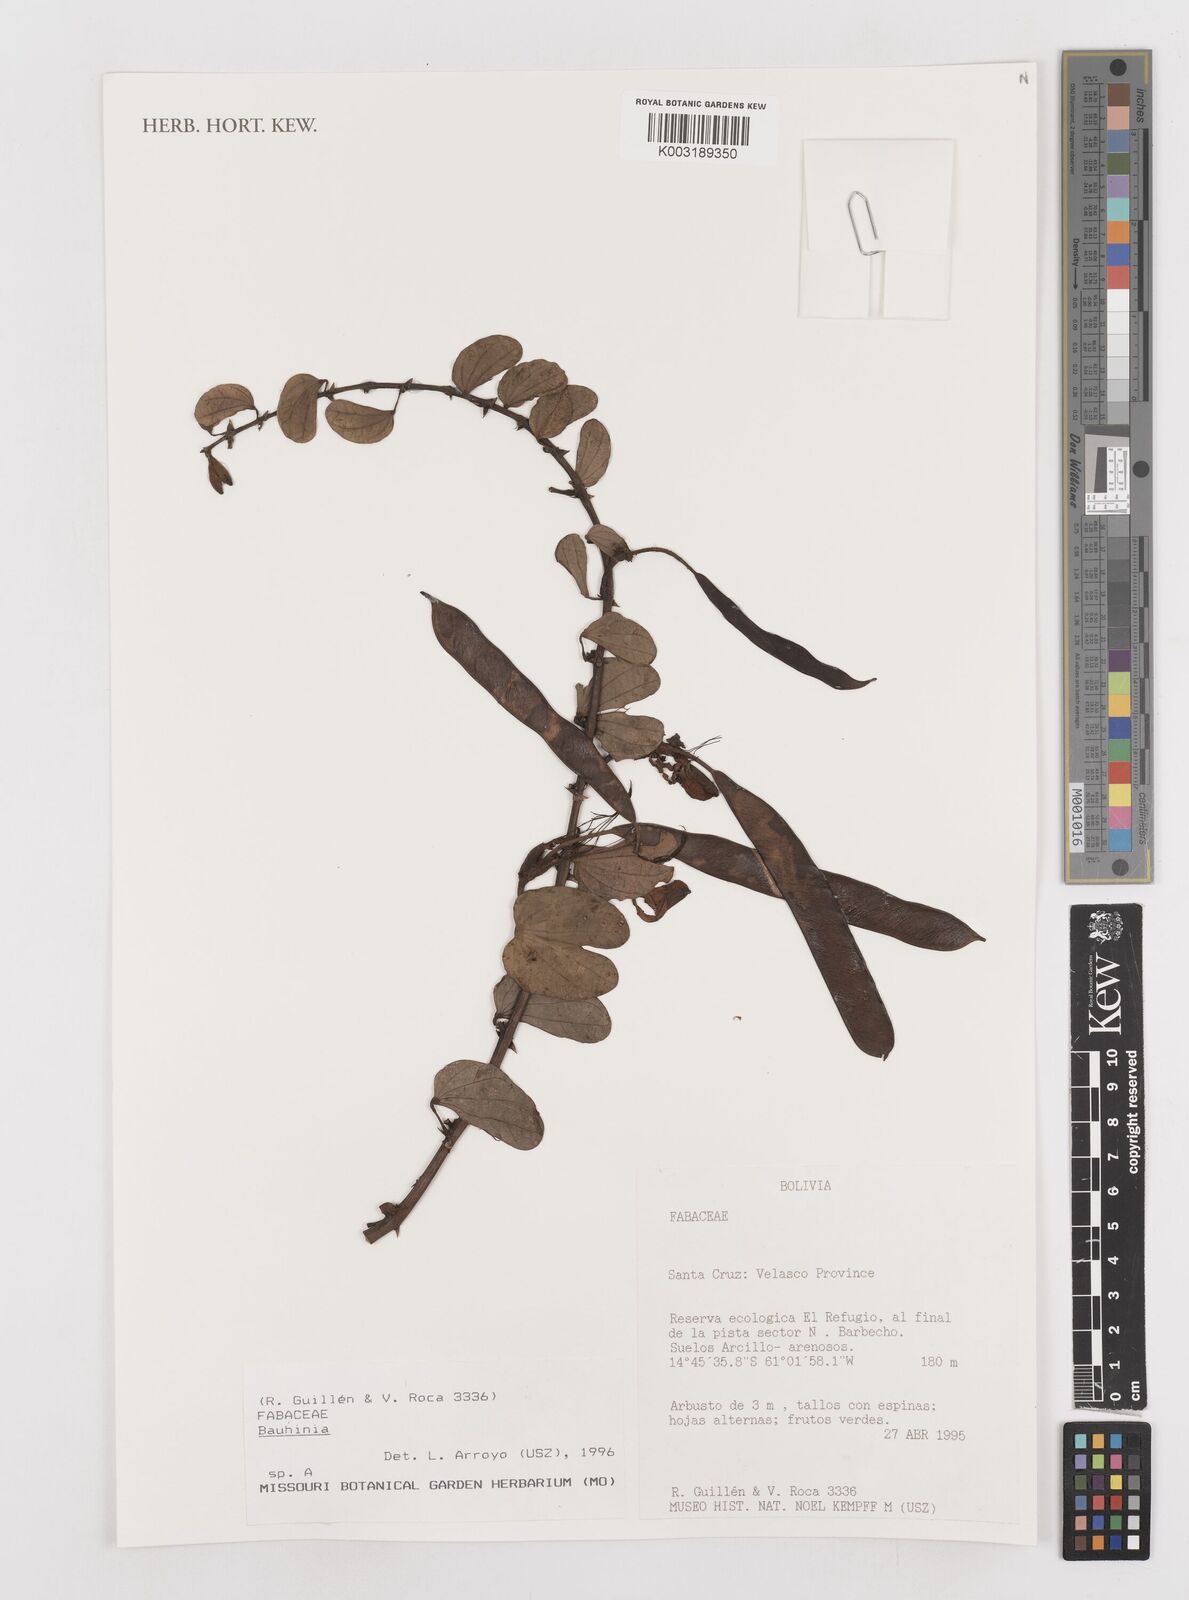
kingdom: Plantae
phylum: Tracheophyta
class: Magnoliopsida
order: Fabales
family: Fabaceae
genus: Bauhinia
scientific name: Bauhinia
